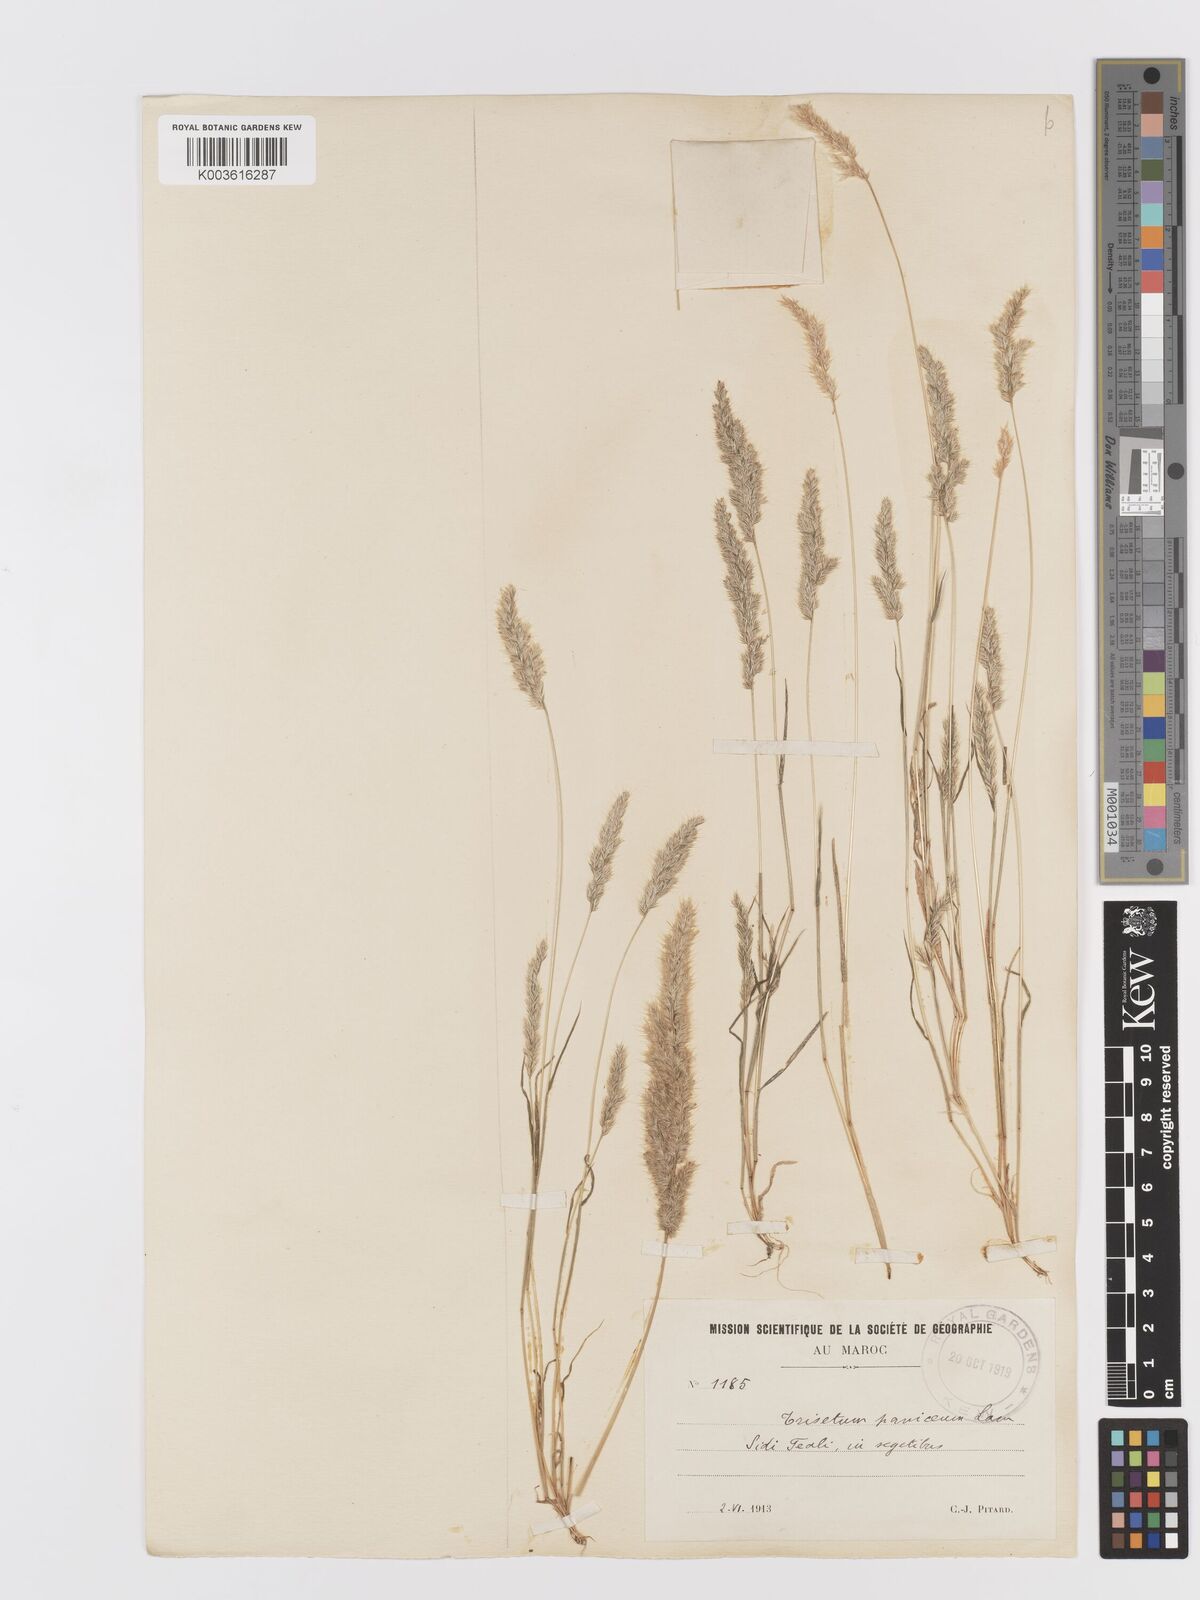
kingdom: Plantae
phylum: Tracheophyta
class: Liliopsida
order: Poales
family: Poaceae
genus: Trisetaria
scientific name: Trisetaria panicea
